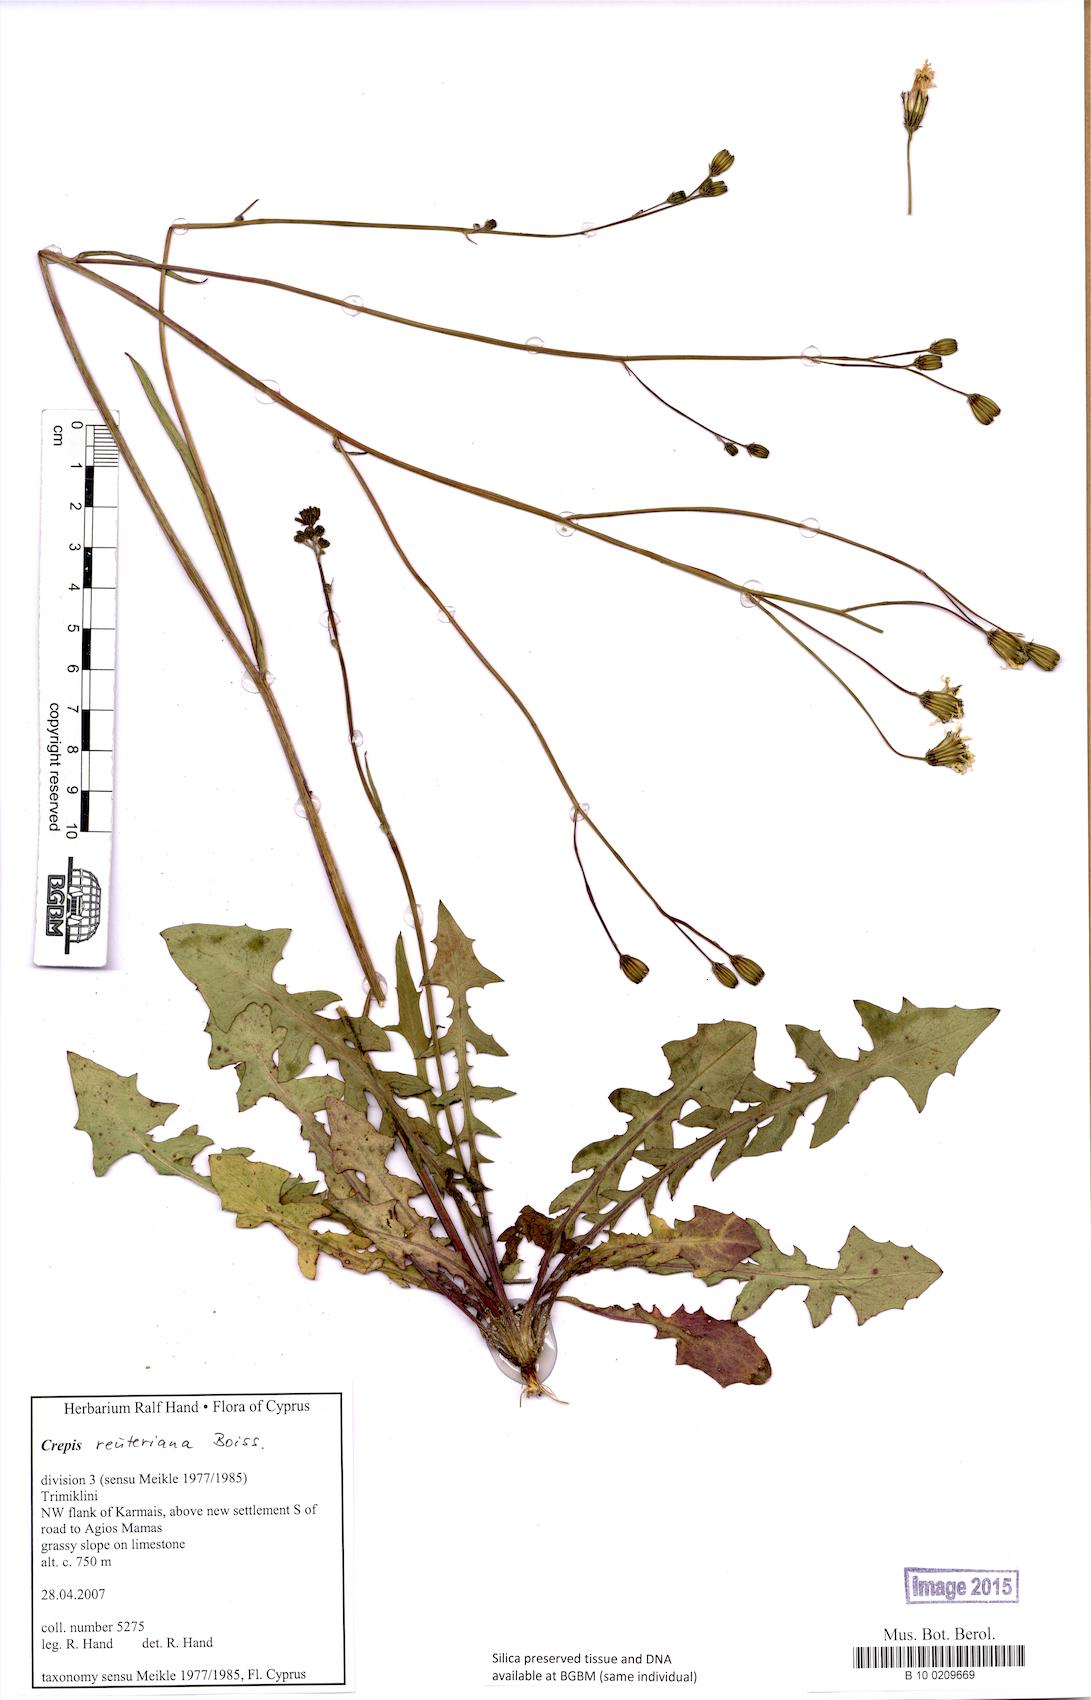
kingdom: Plantae
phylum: Tracheophyta
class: Magnoliopsida
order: Asterales
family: Asteraceae
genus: Crepis
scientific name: Crepis reuteriana
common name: Hawk's-beard
